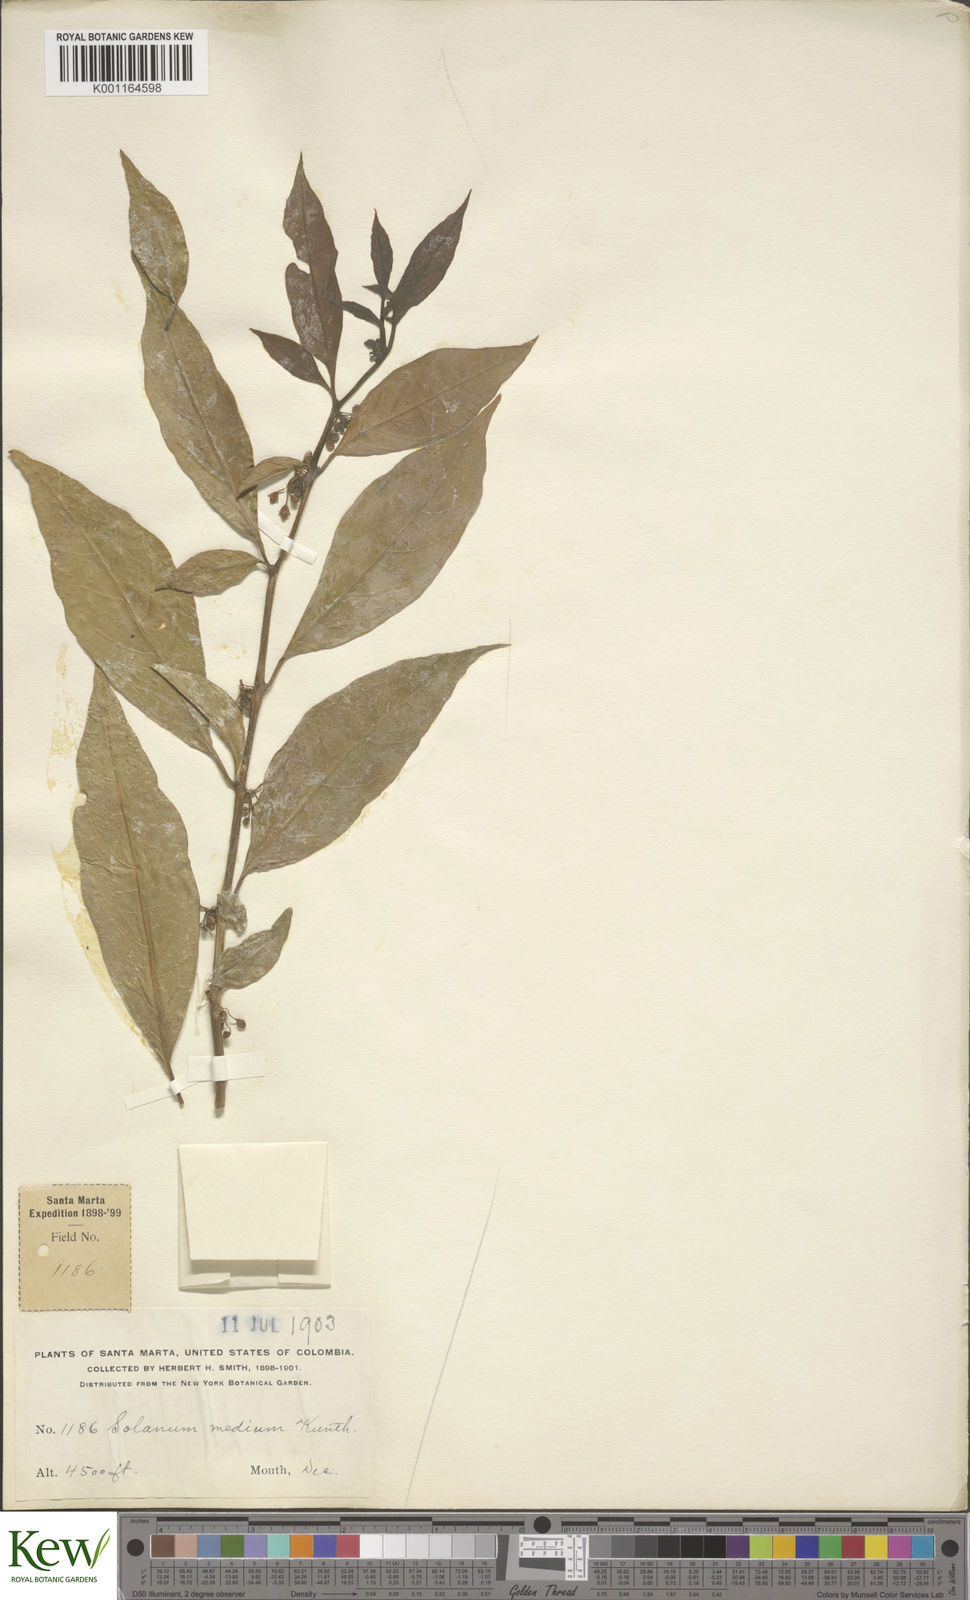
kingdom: Plantae
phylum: Tracheophyta
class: Magnoliopsida
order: Solanales
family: Solanaceae
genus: Solanum
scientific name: Solanum
